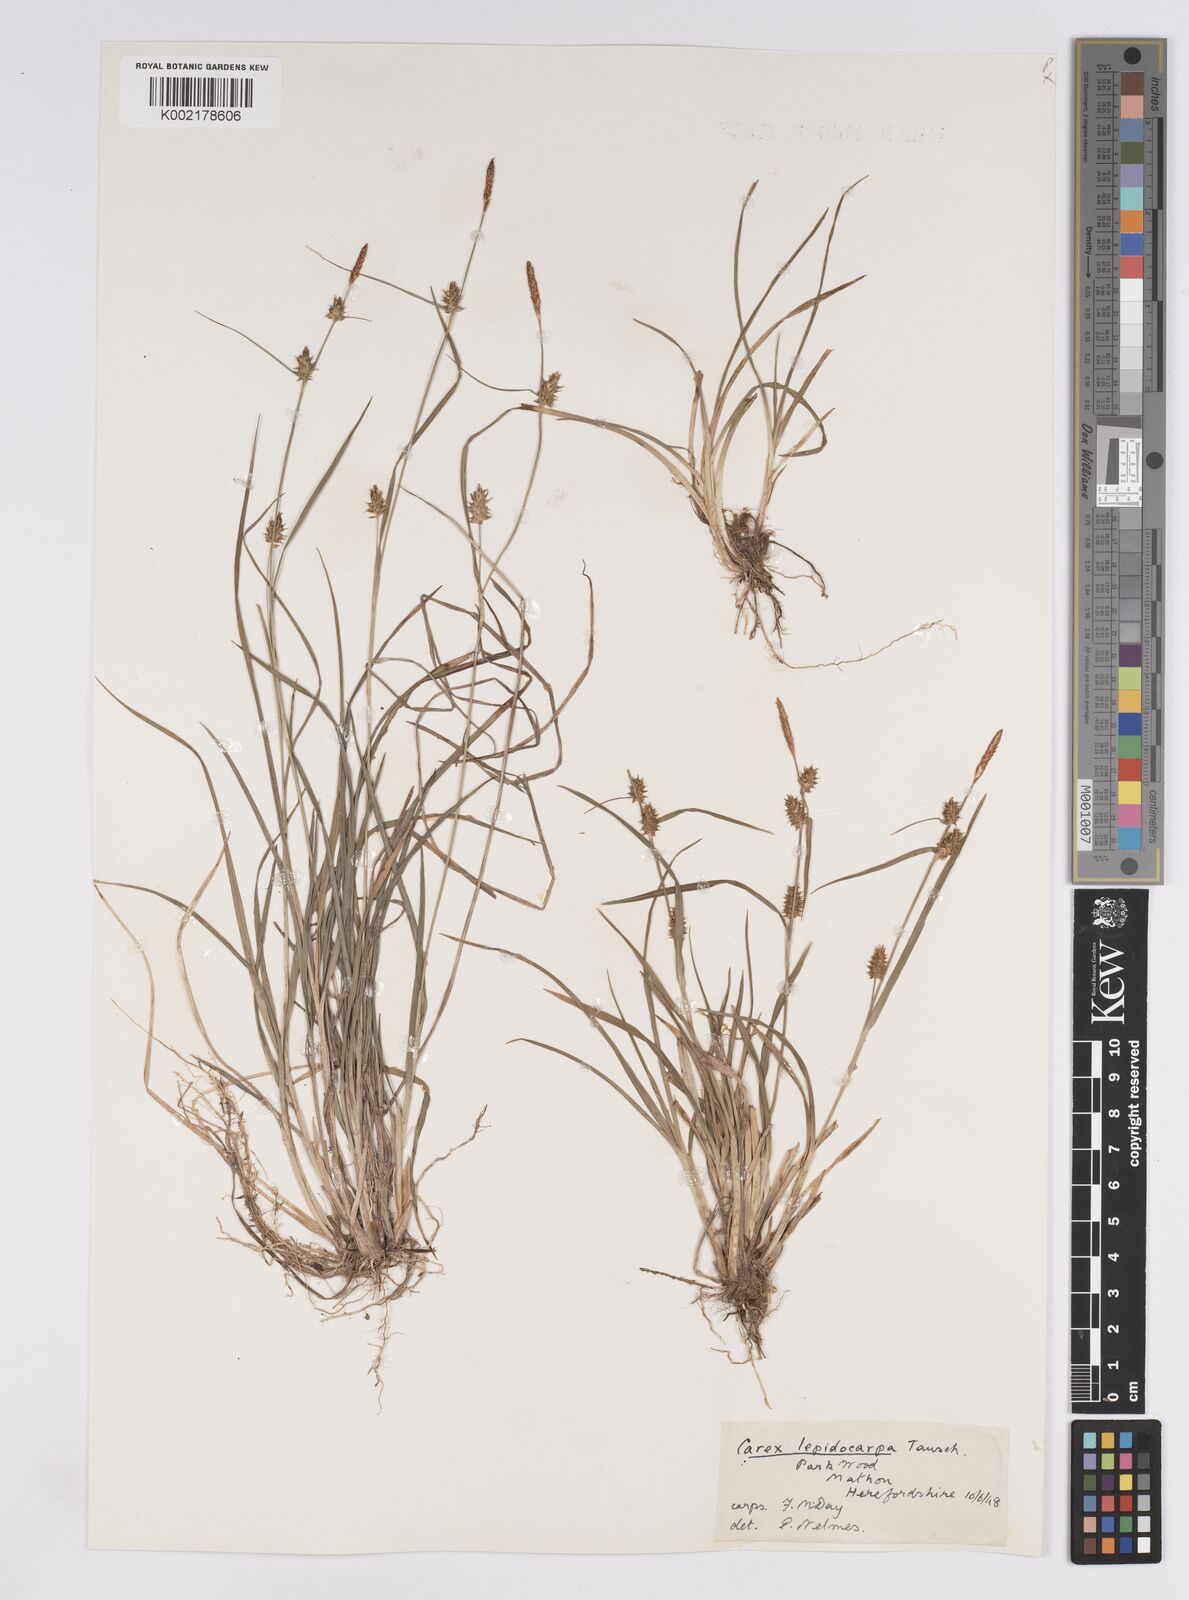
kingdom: Plantae
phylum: Tracheophyta
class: Liliopsida
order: Poales
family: Cyperaceae
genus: Carex
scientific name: Carex lepidocarpa
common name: Long-stalked yellow-sedge
